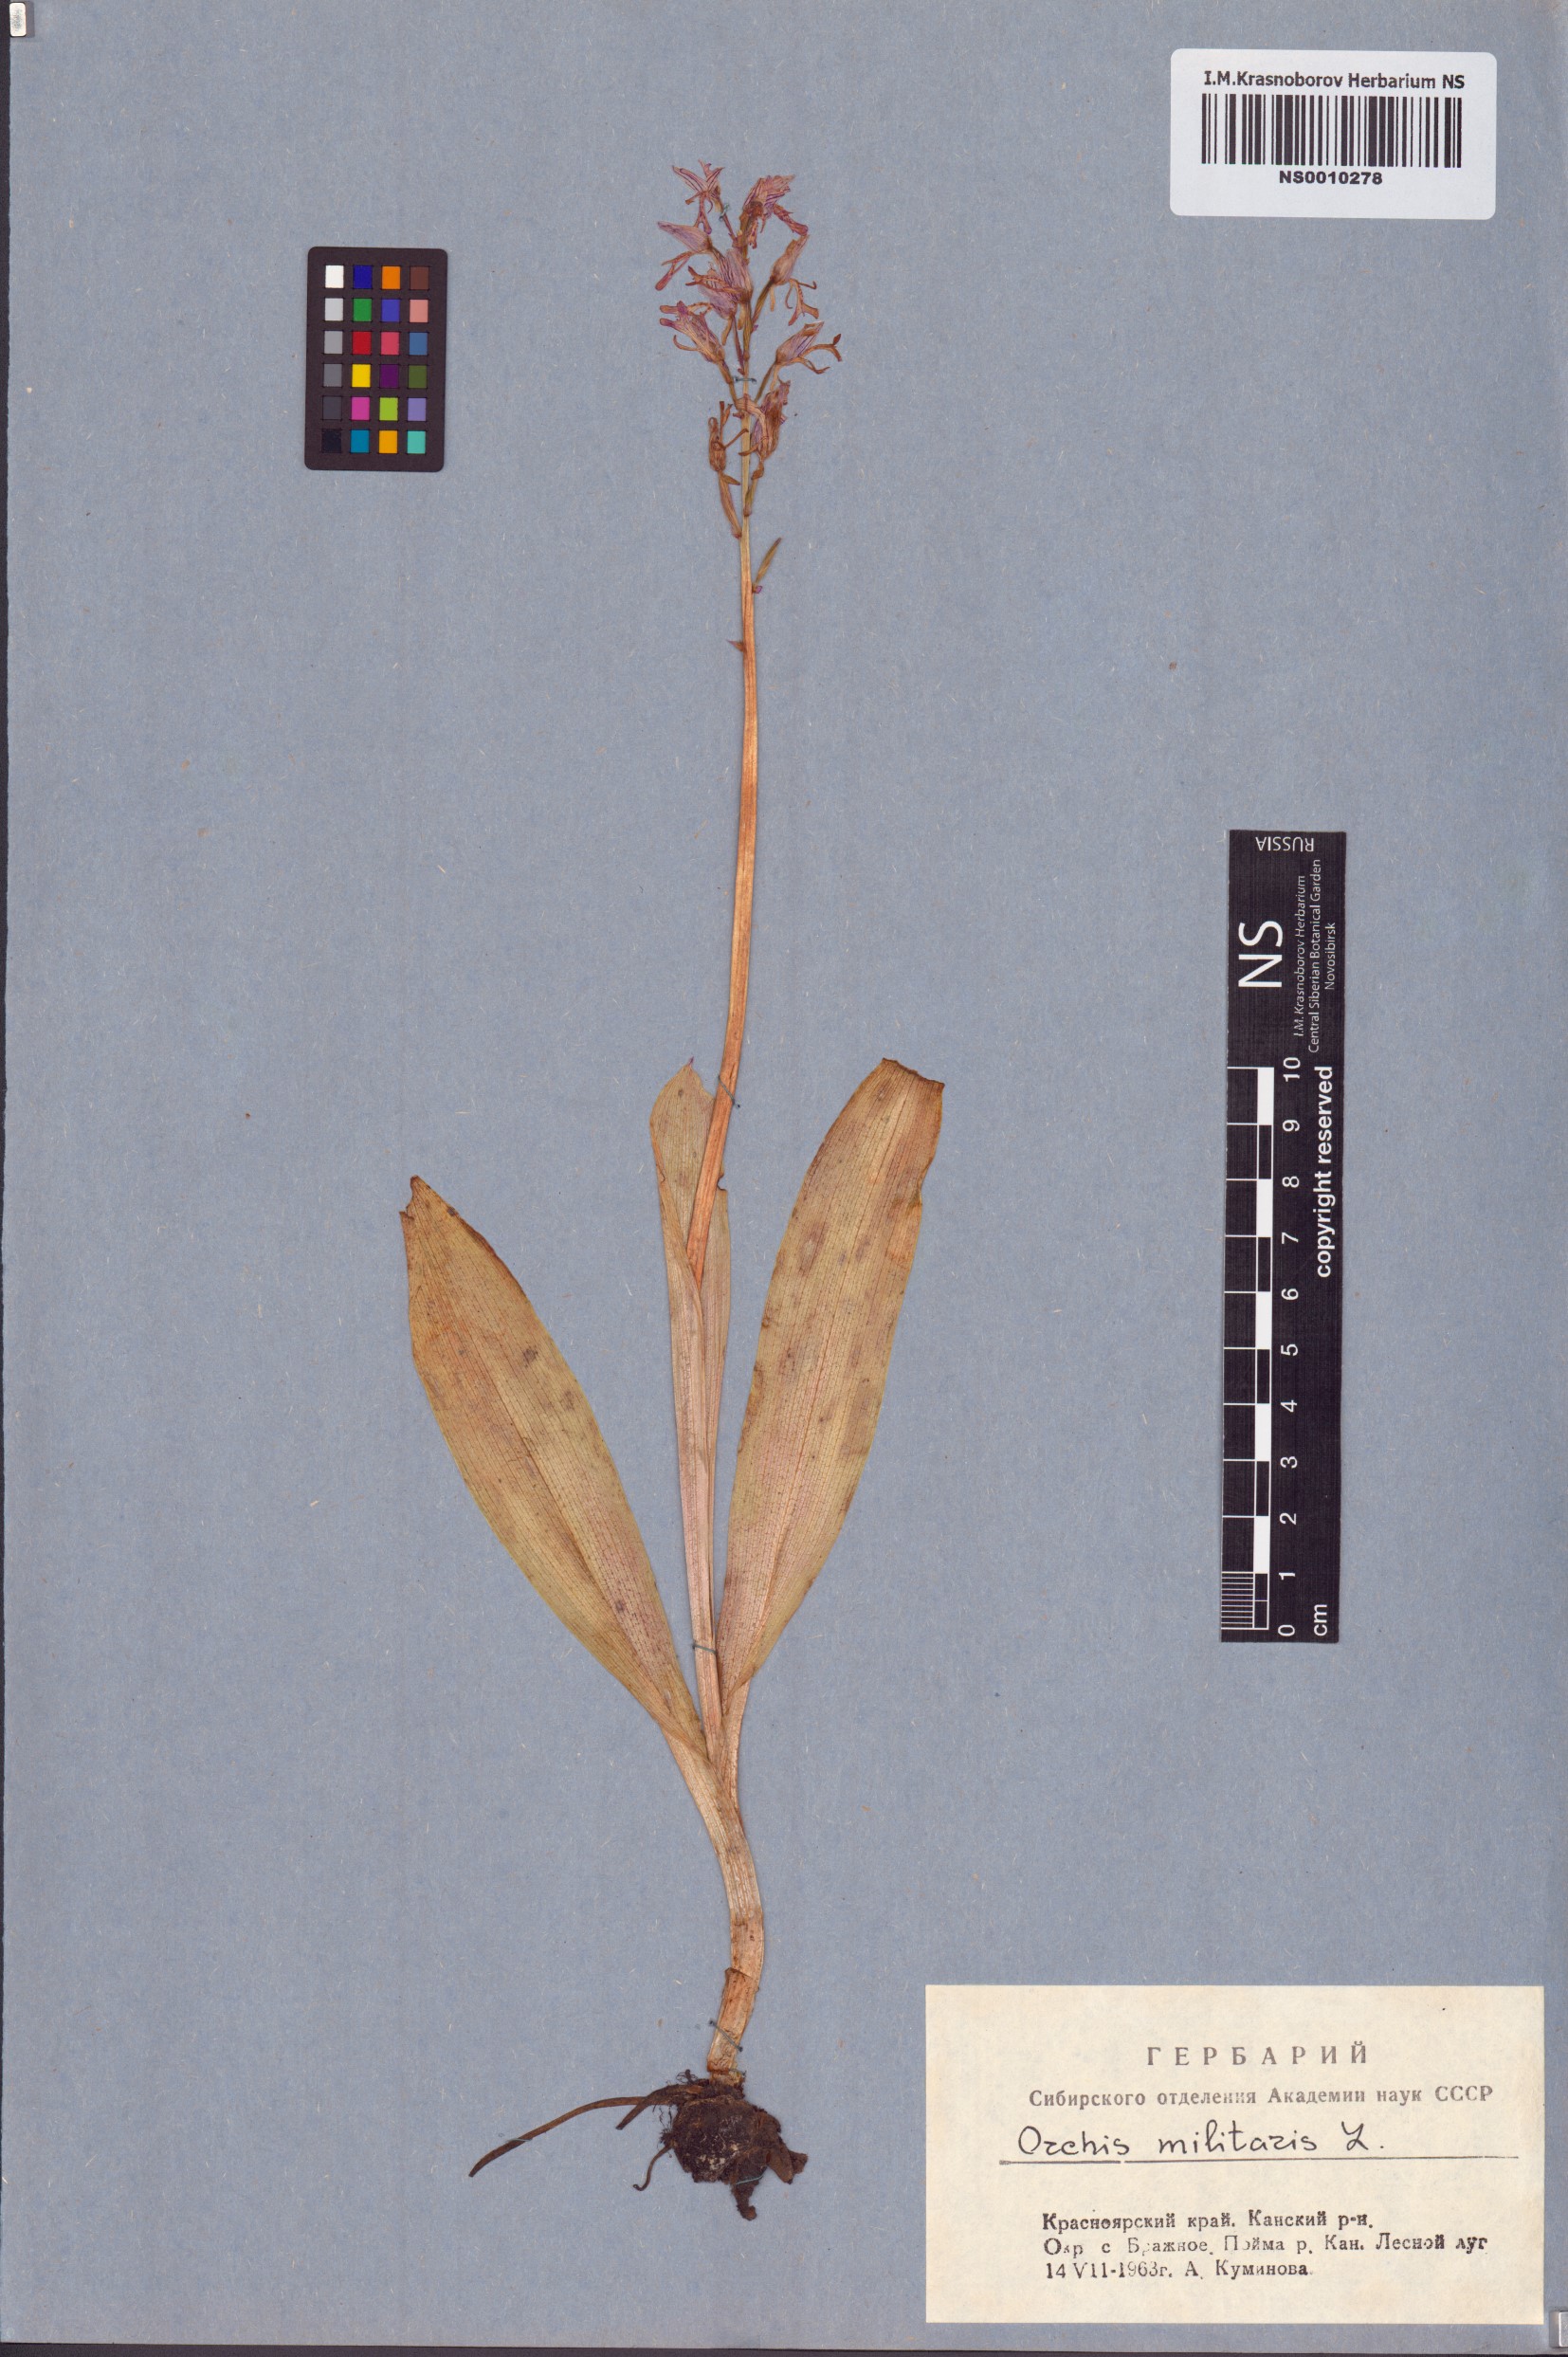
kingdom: Plantae
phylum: Tracheophyta
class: Liliopsida
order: Asparagales
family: Orchidaceae
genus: Orchis
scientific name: Orchis militaris
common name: Military orchid
